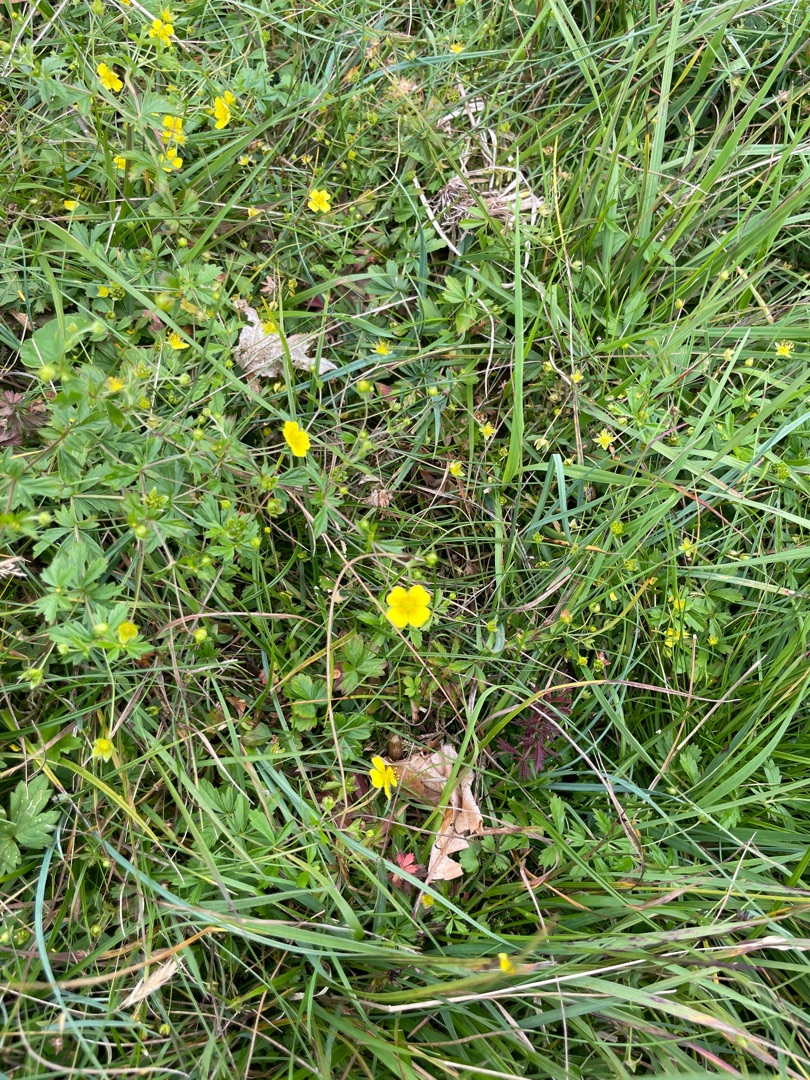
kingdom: Plantae
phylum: Tracheophyta
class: Magnoliopsida
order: Rosales
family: Rosaceae
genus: Potentilla
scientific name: Potentilla erecta
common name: Tormentil
